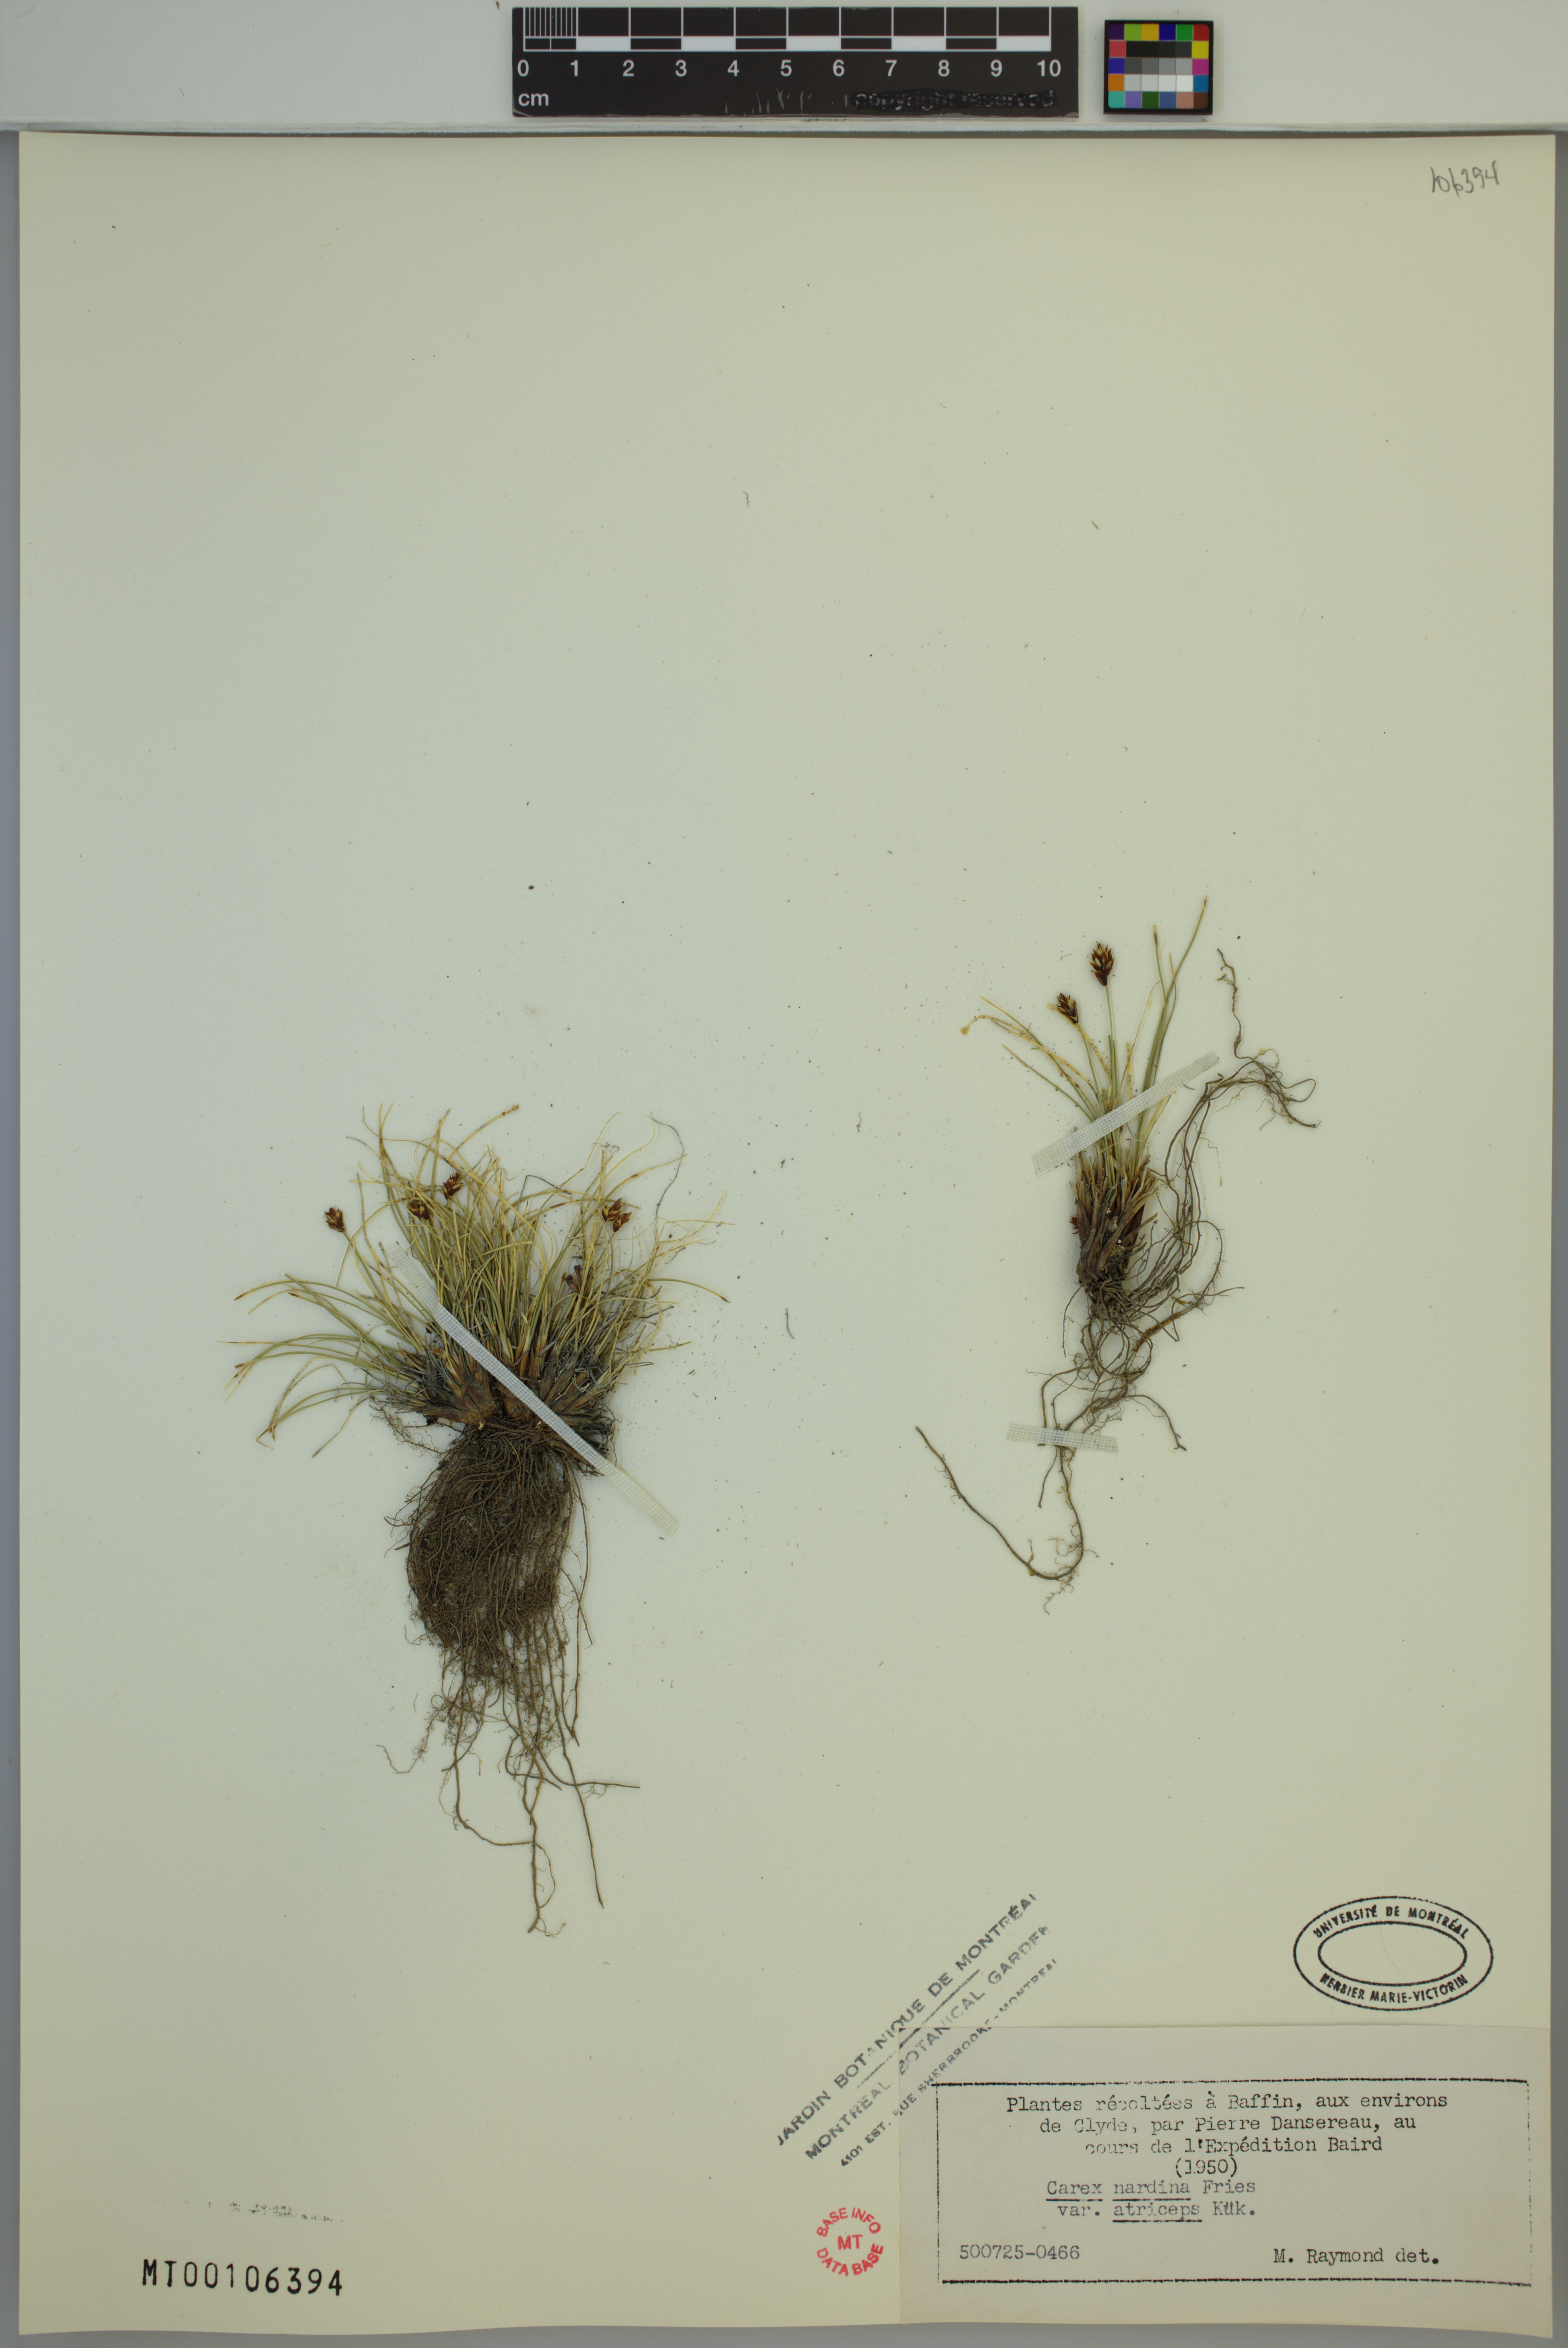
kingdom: Plantae
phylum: Tracheophyta
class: Liliopsida
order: Poales
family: Cyperaceae
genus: Carex
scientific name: Carex nardina
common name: Nard sedge
